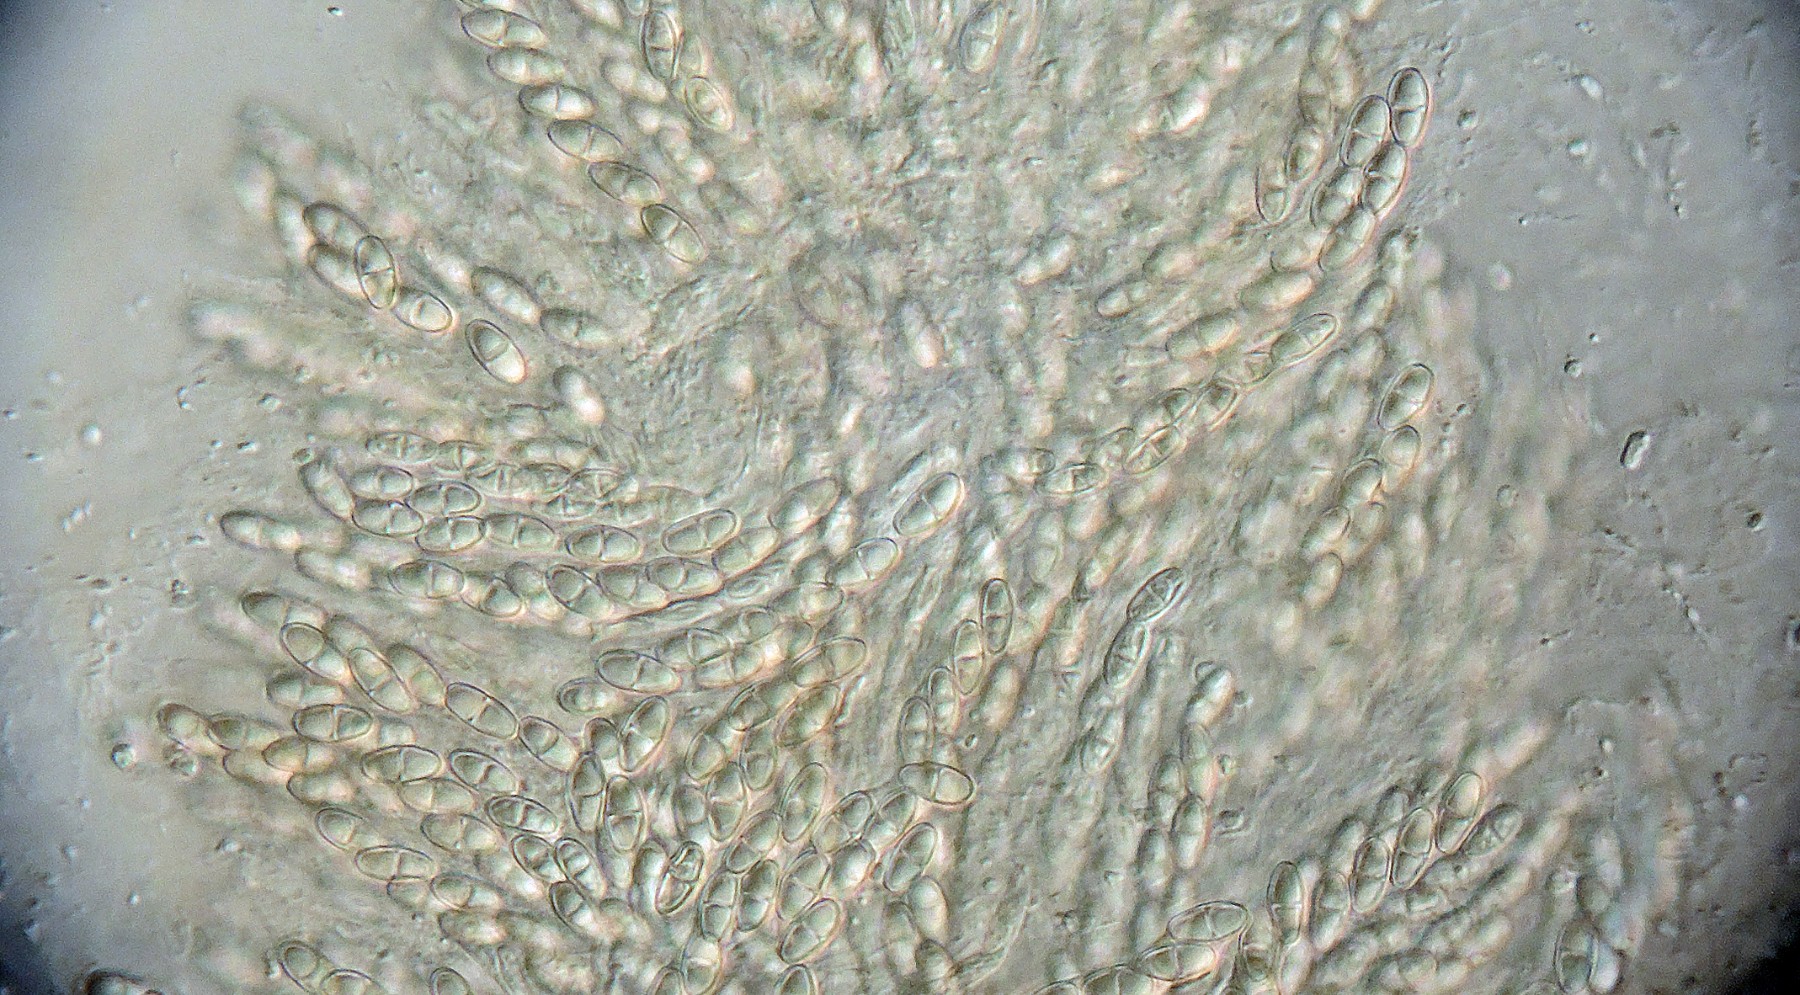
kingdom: Fungi
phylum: Ascomycota
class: Sordariomycetes
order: Hypocreales
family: Bionectriaceae
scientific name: Bionectriaceae
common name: gyldenkernefamilien
